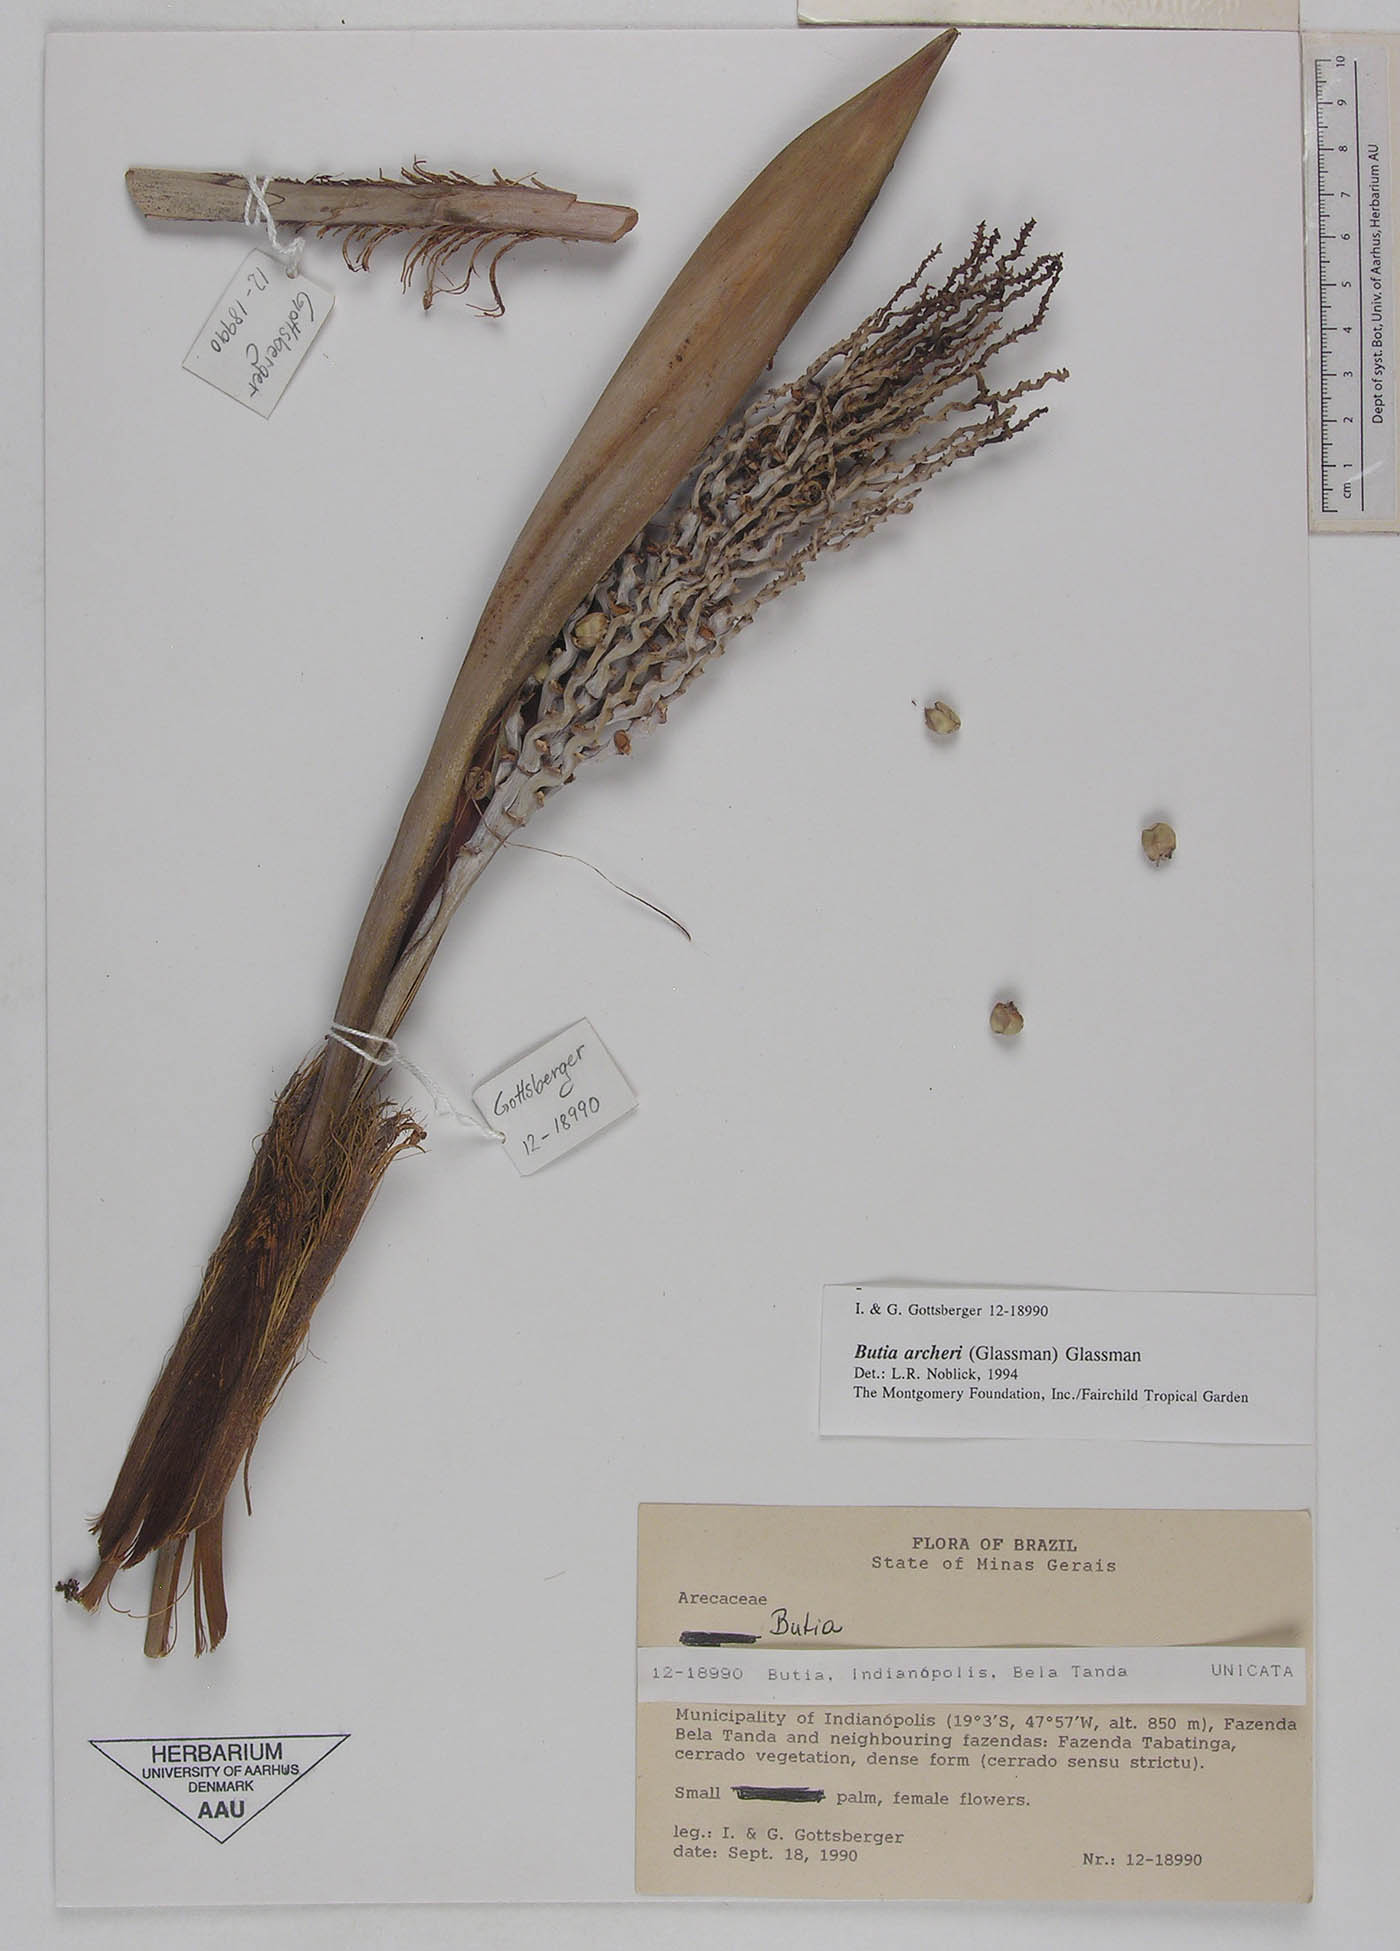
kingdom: Plantae
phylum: Tracheophyta
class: Liliopsida
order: Arecales
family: Arecaceae
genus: Butia
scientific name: Butia archeri
